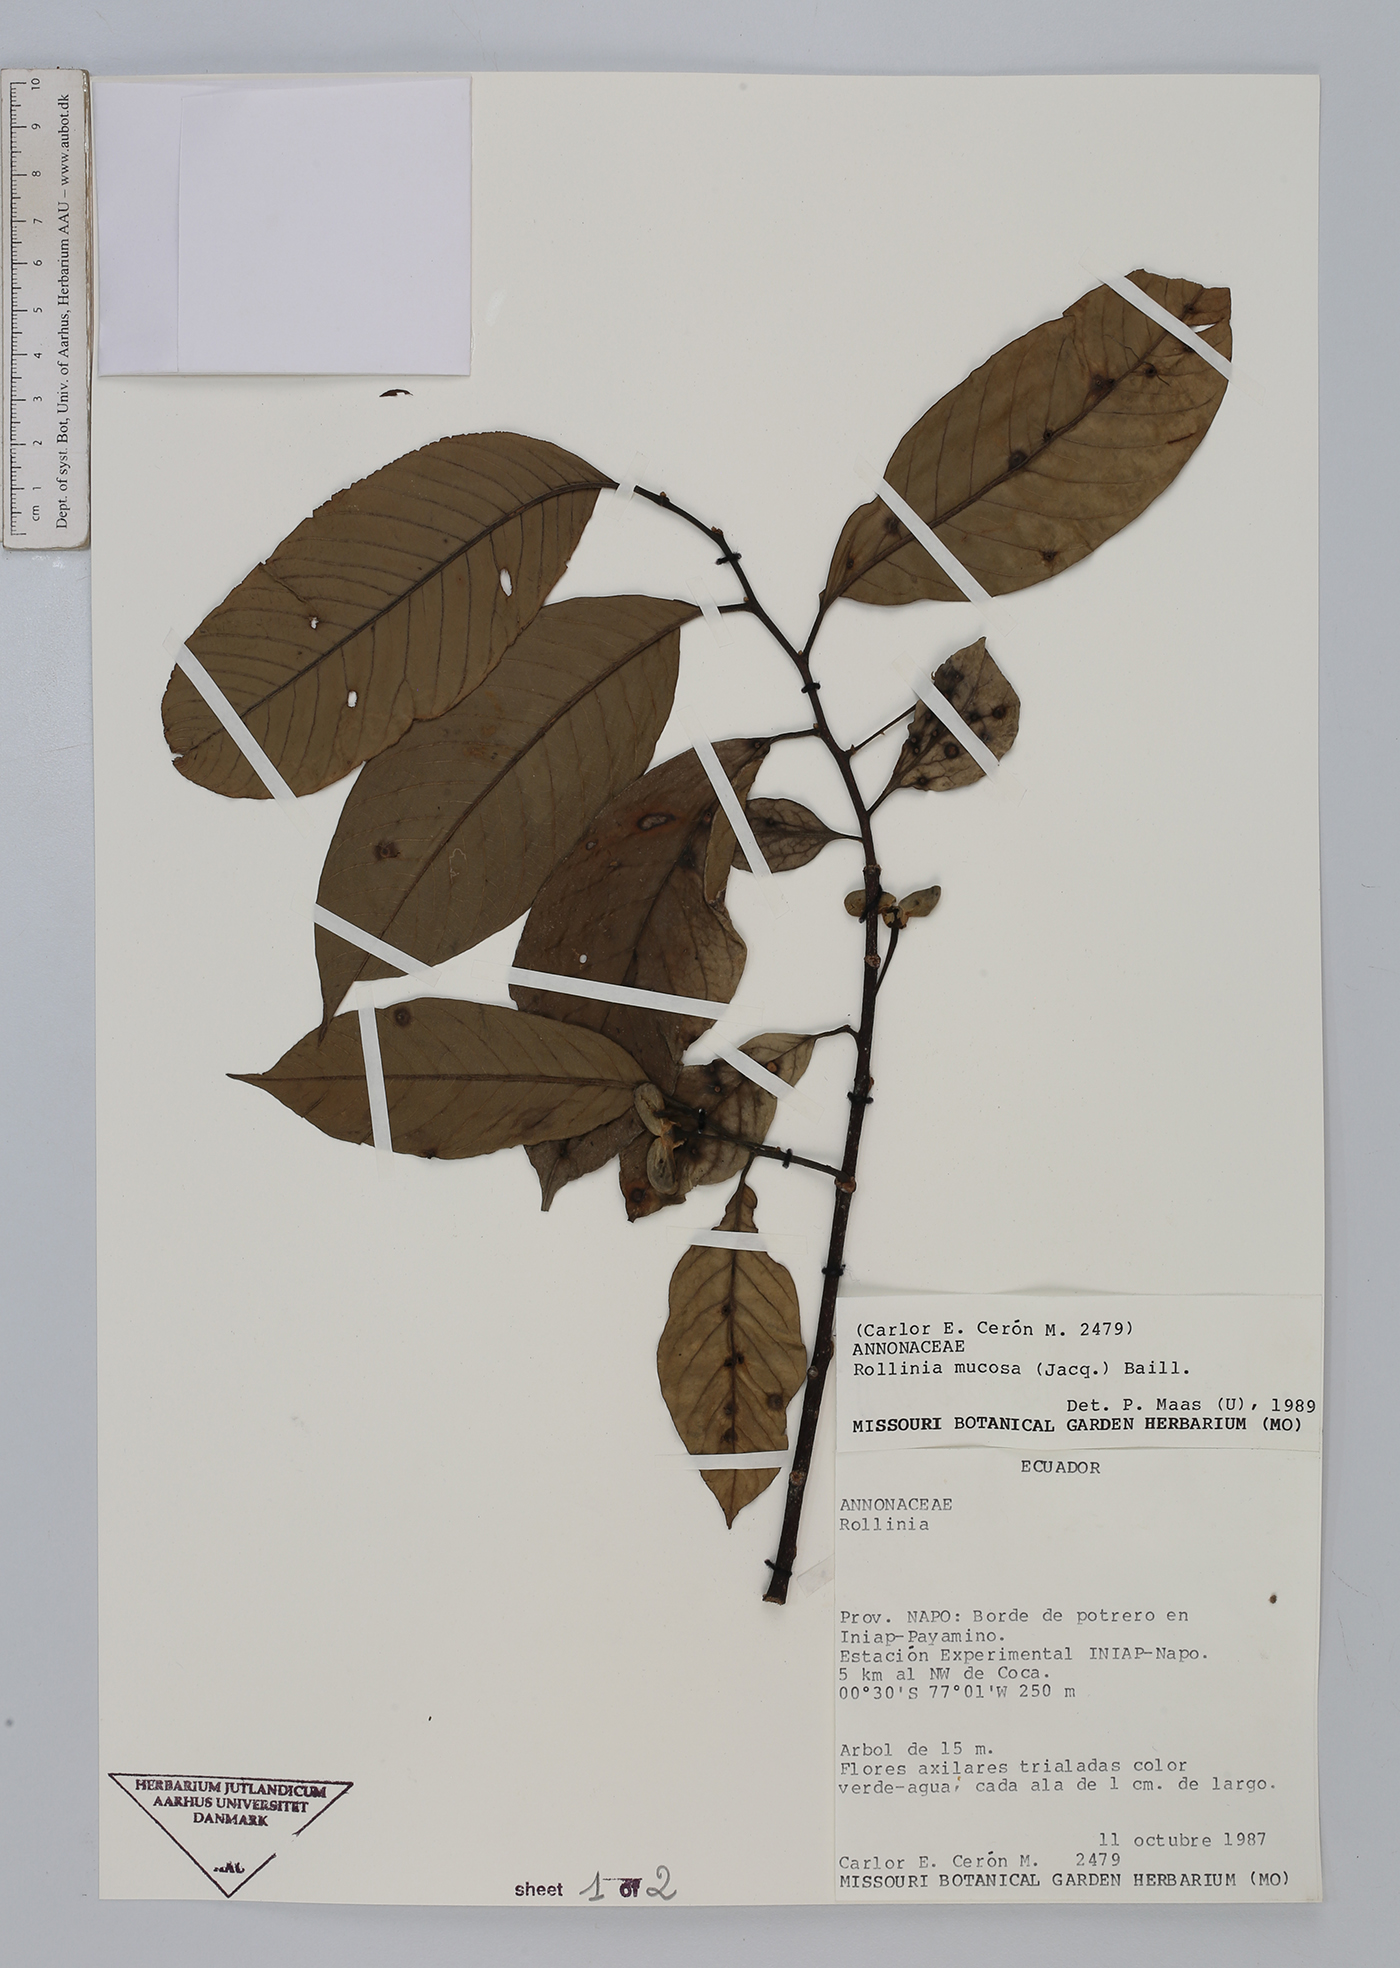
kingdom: Plantae
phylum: Tracheophyta
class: Magnoliopsida
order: Magnoliales
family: Annonaceae
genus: Annona
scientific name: Annona mucosa
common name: Sugar apple
